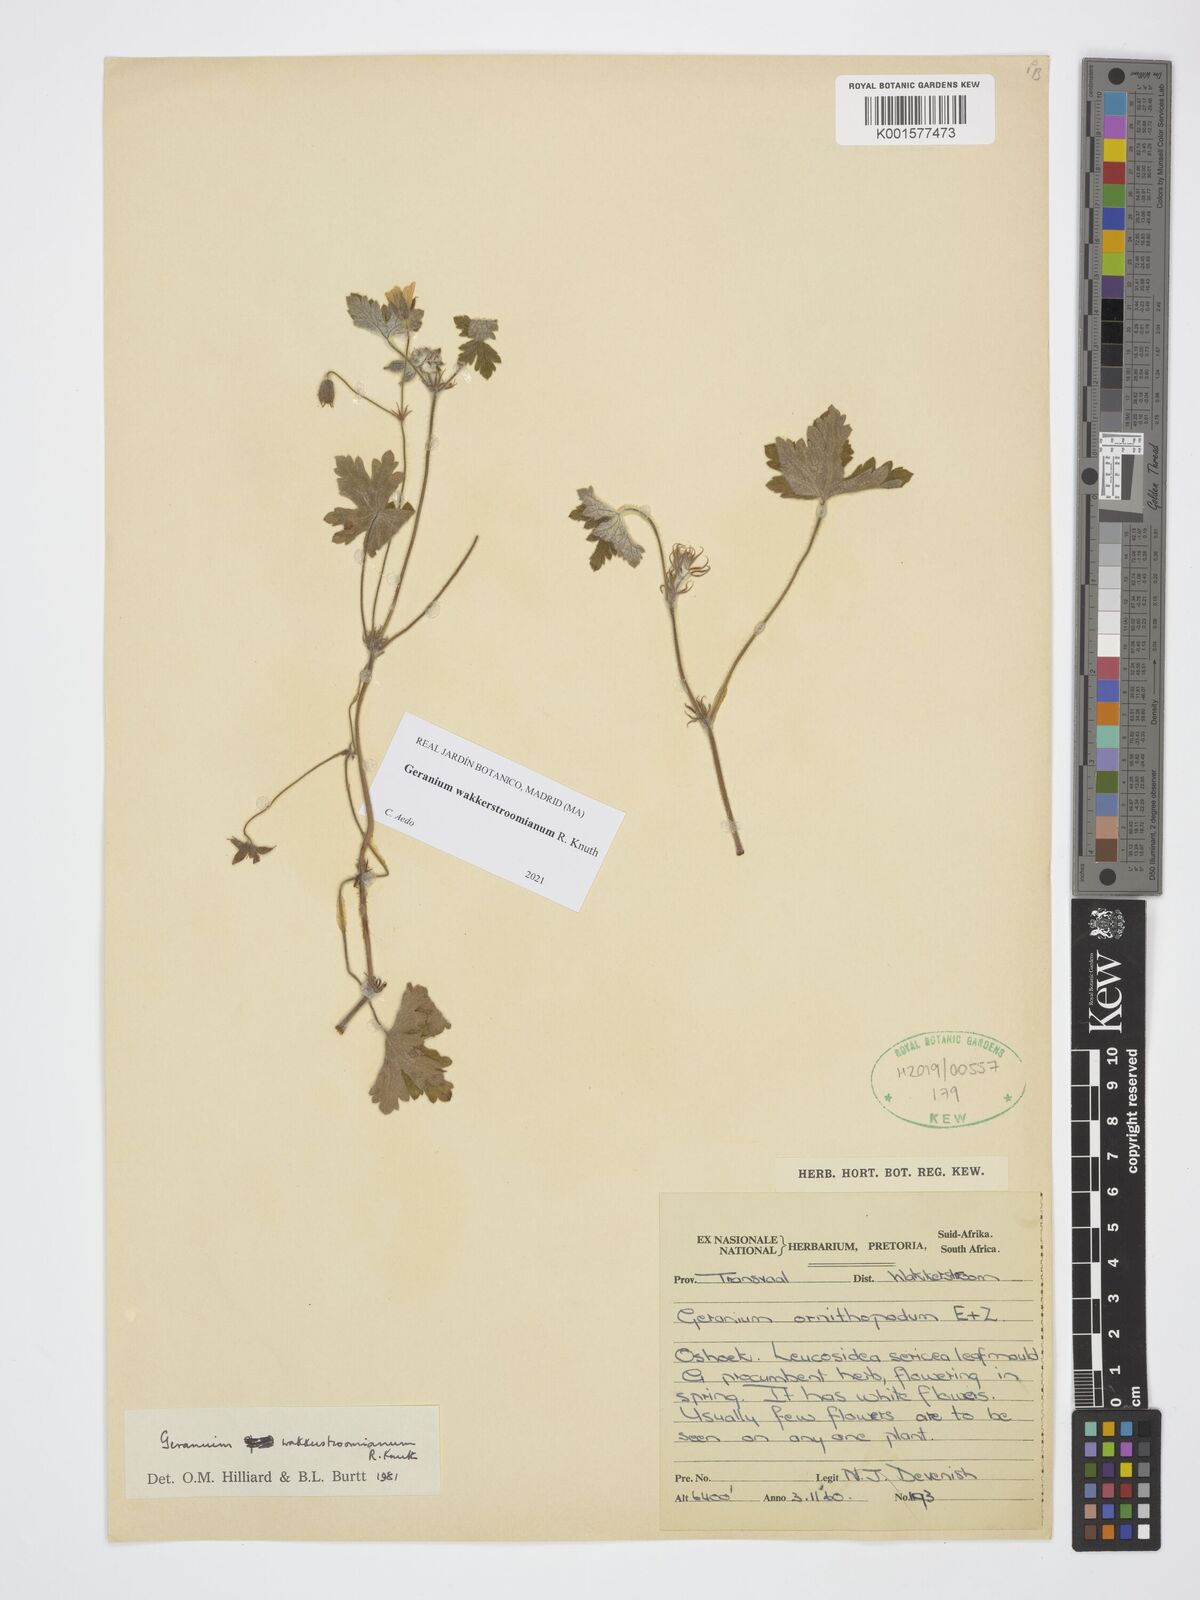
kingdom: Plantae
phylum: Tracheophyta
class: Magnoliopsida
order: Geraniales
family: Geraniaceae
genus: Geranium
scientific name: Geranium wakkerstroomianum
